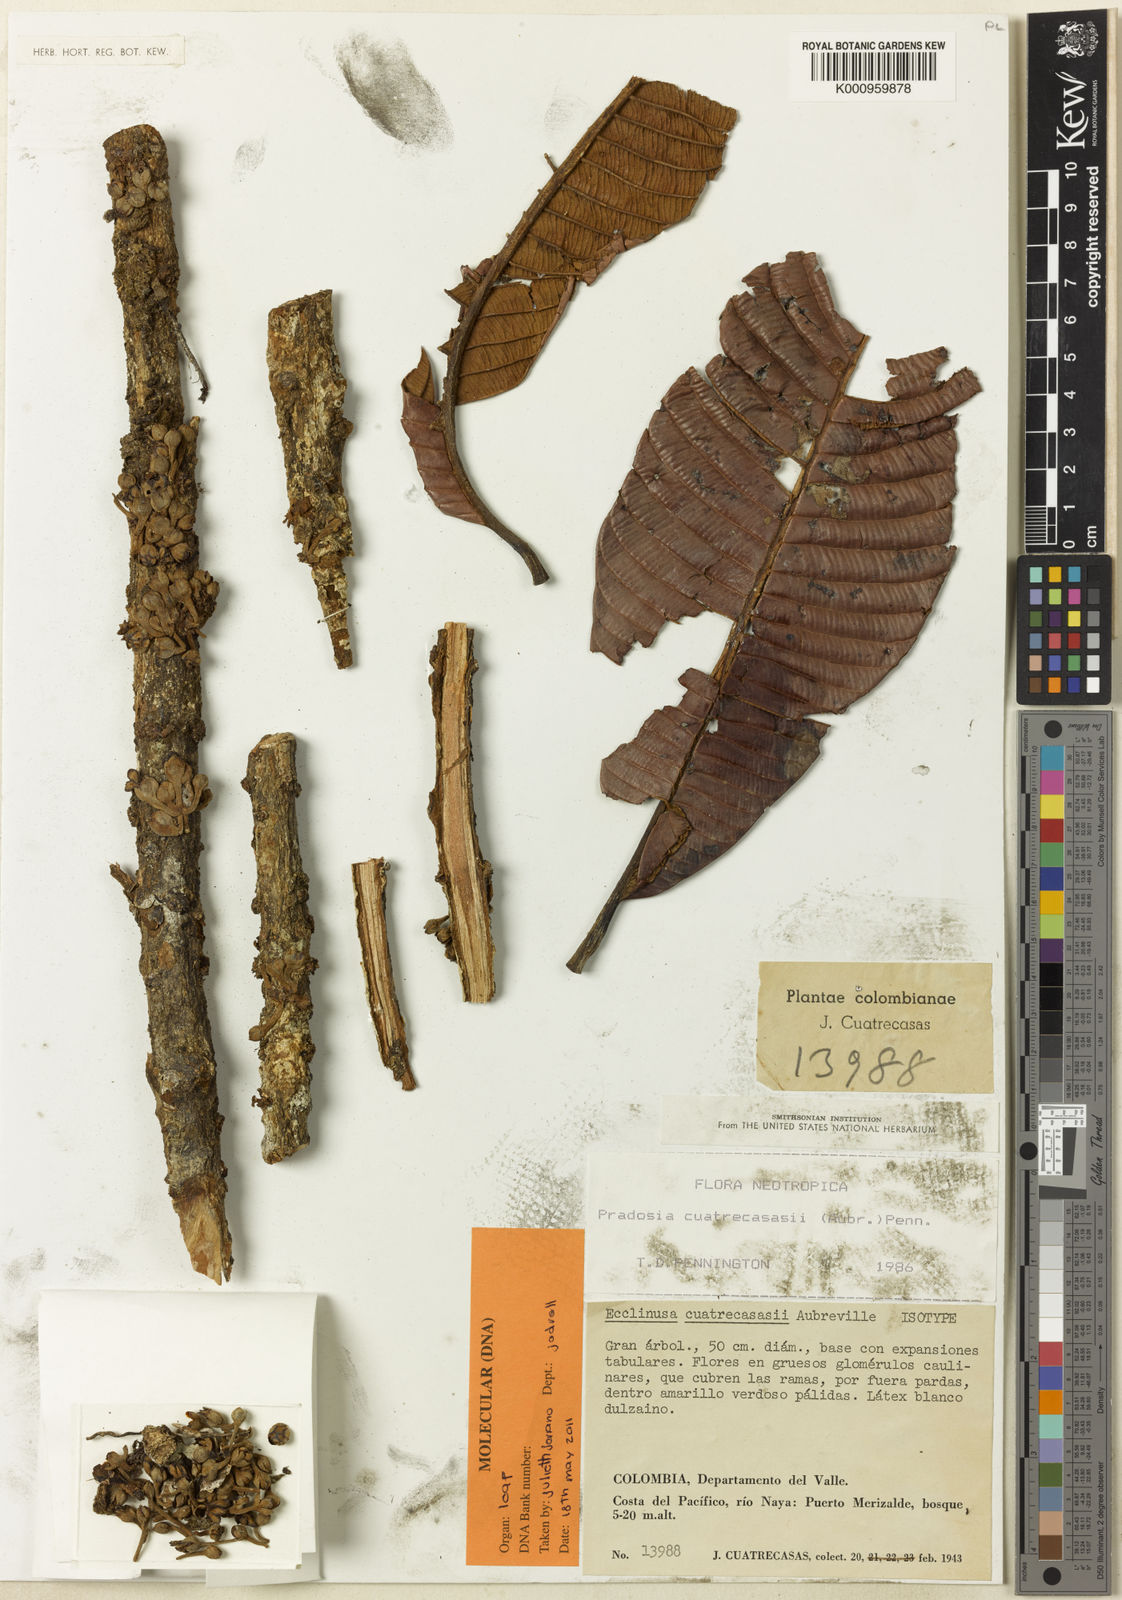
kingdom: Plantae
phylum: Tracheophyta
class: Magnoliopsida
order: Ericales
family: Sapotaceae
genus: Pradosia
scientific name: Pradosia
